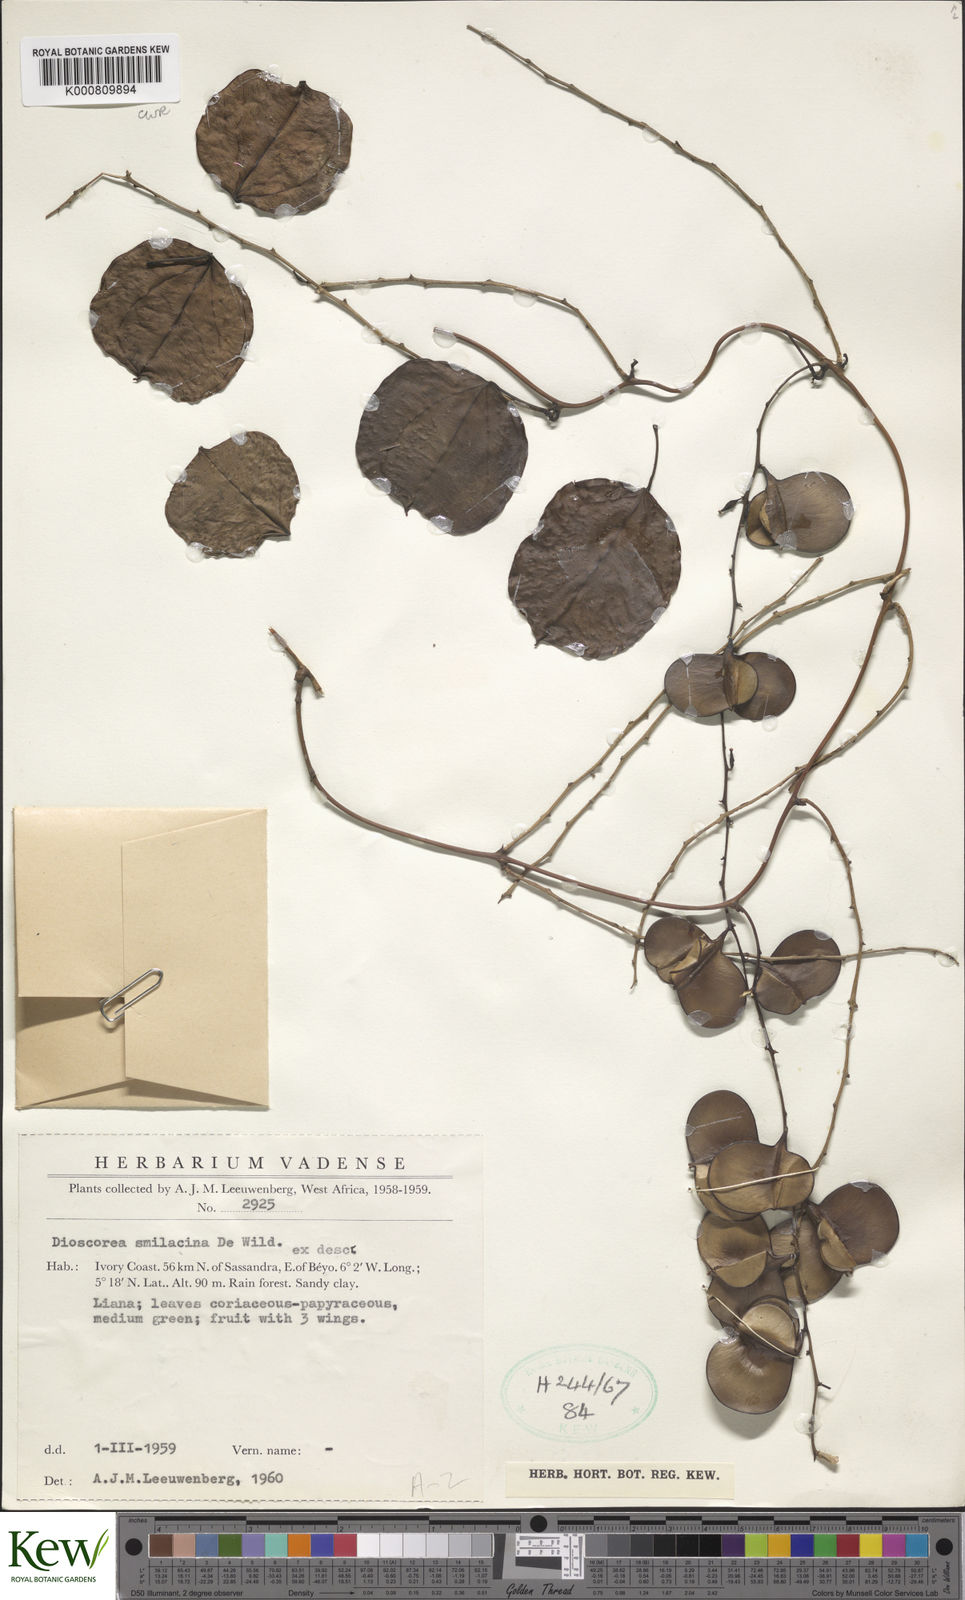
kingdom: Plantae
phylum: Tracheophyta
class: Liliopsida
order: Dioscoreales
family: Dioscoreaceae
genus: Dioscorea
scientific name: Dioscorea smilacifolia
